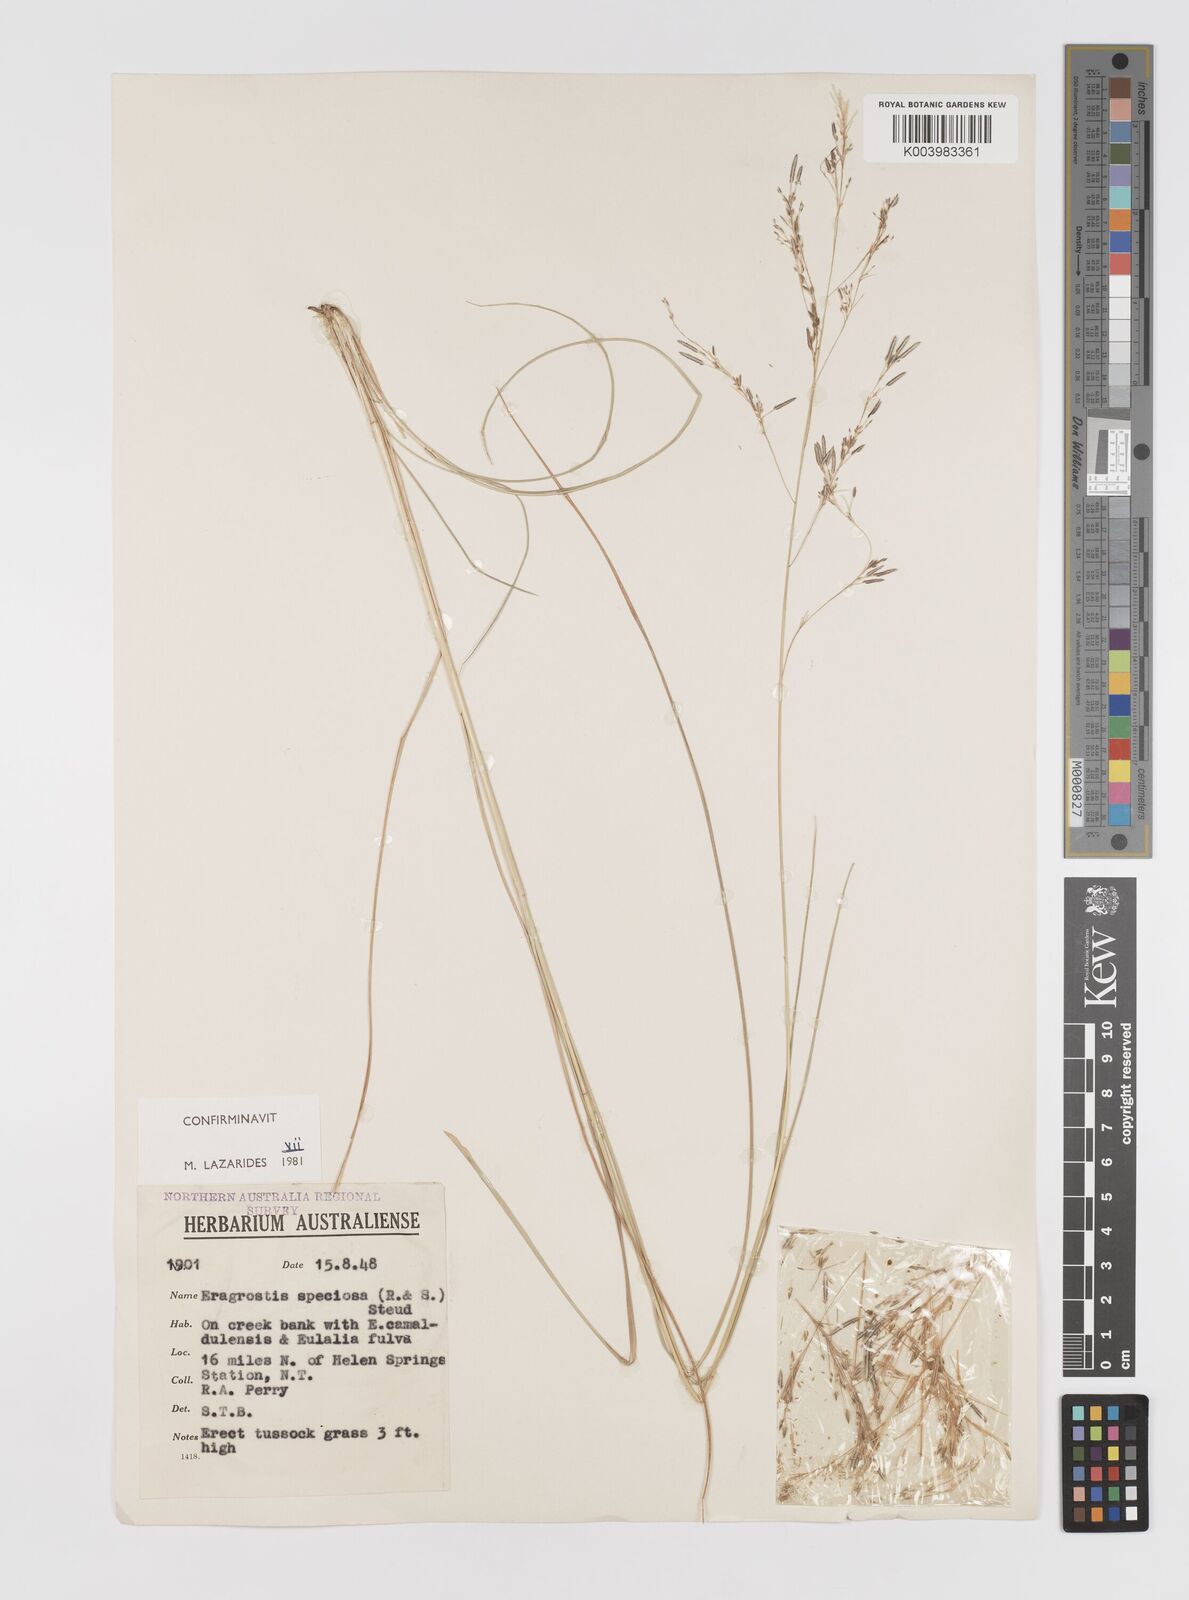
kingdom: Plantae
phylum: Tracheophyta
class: Liliopsida
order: Poales
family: Poaceae
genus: Eragrostis
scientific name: Eragrostis speciosa
